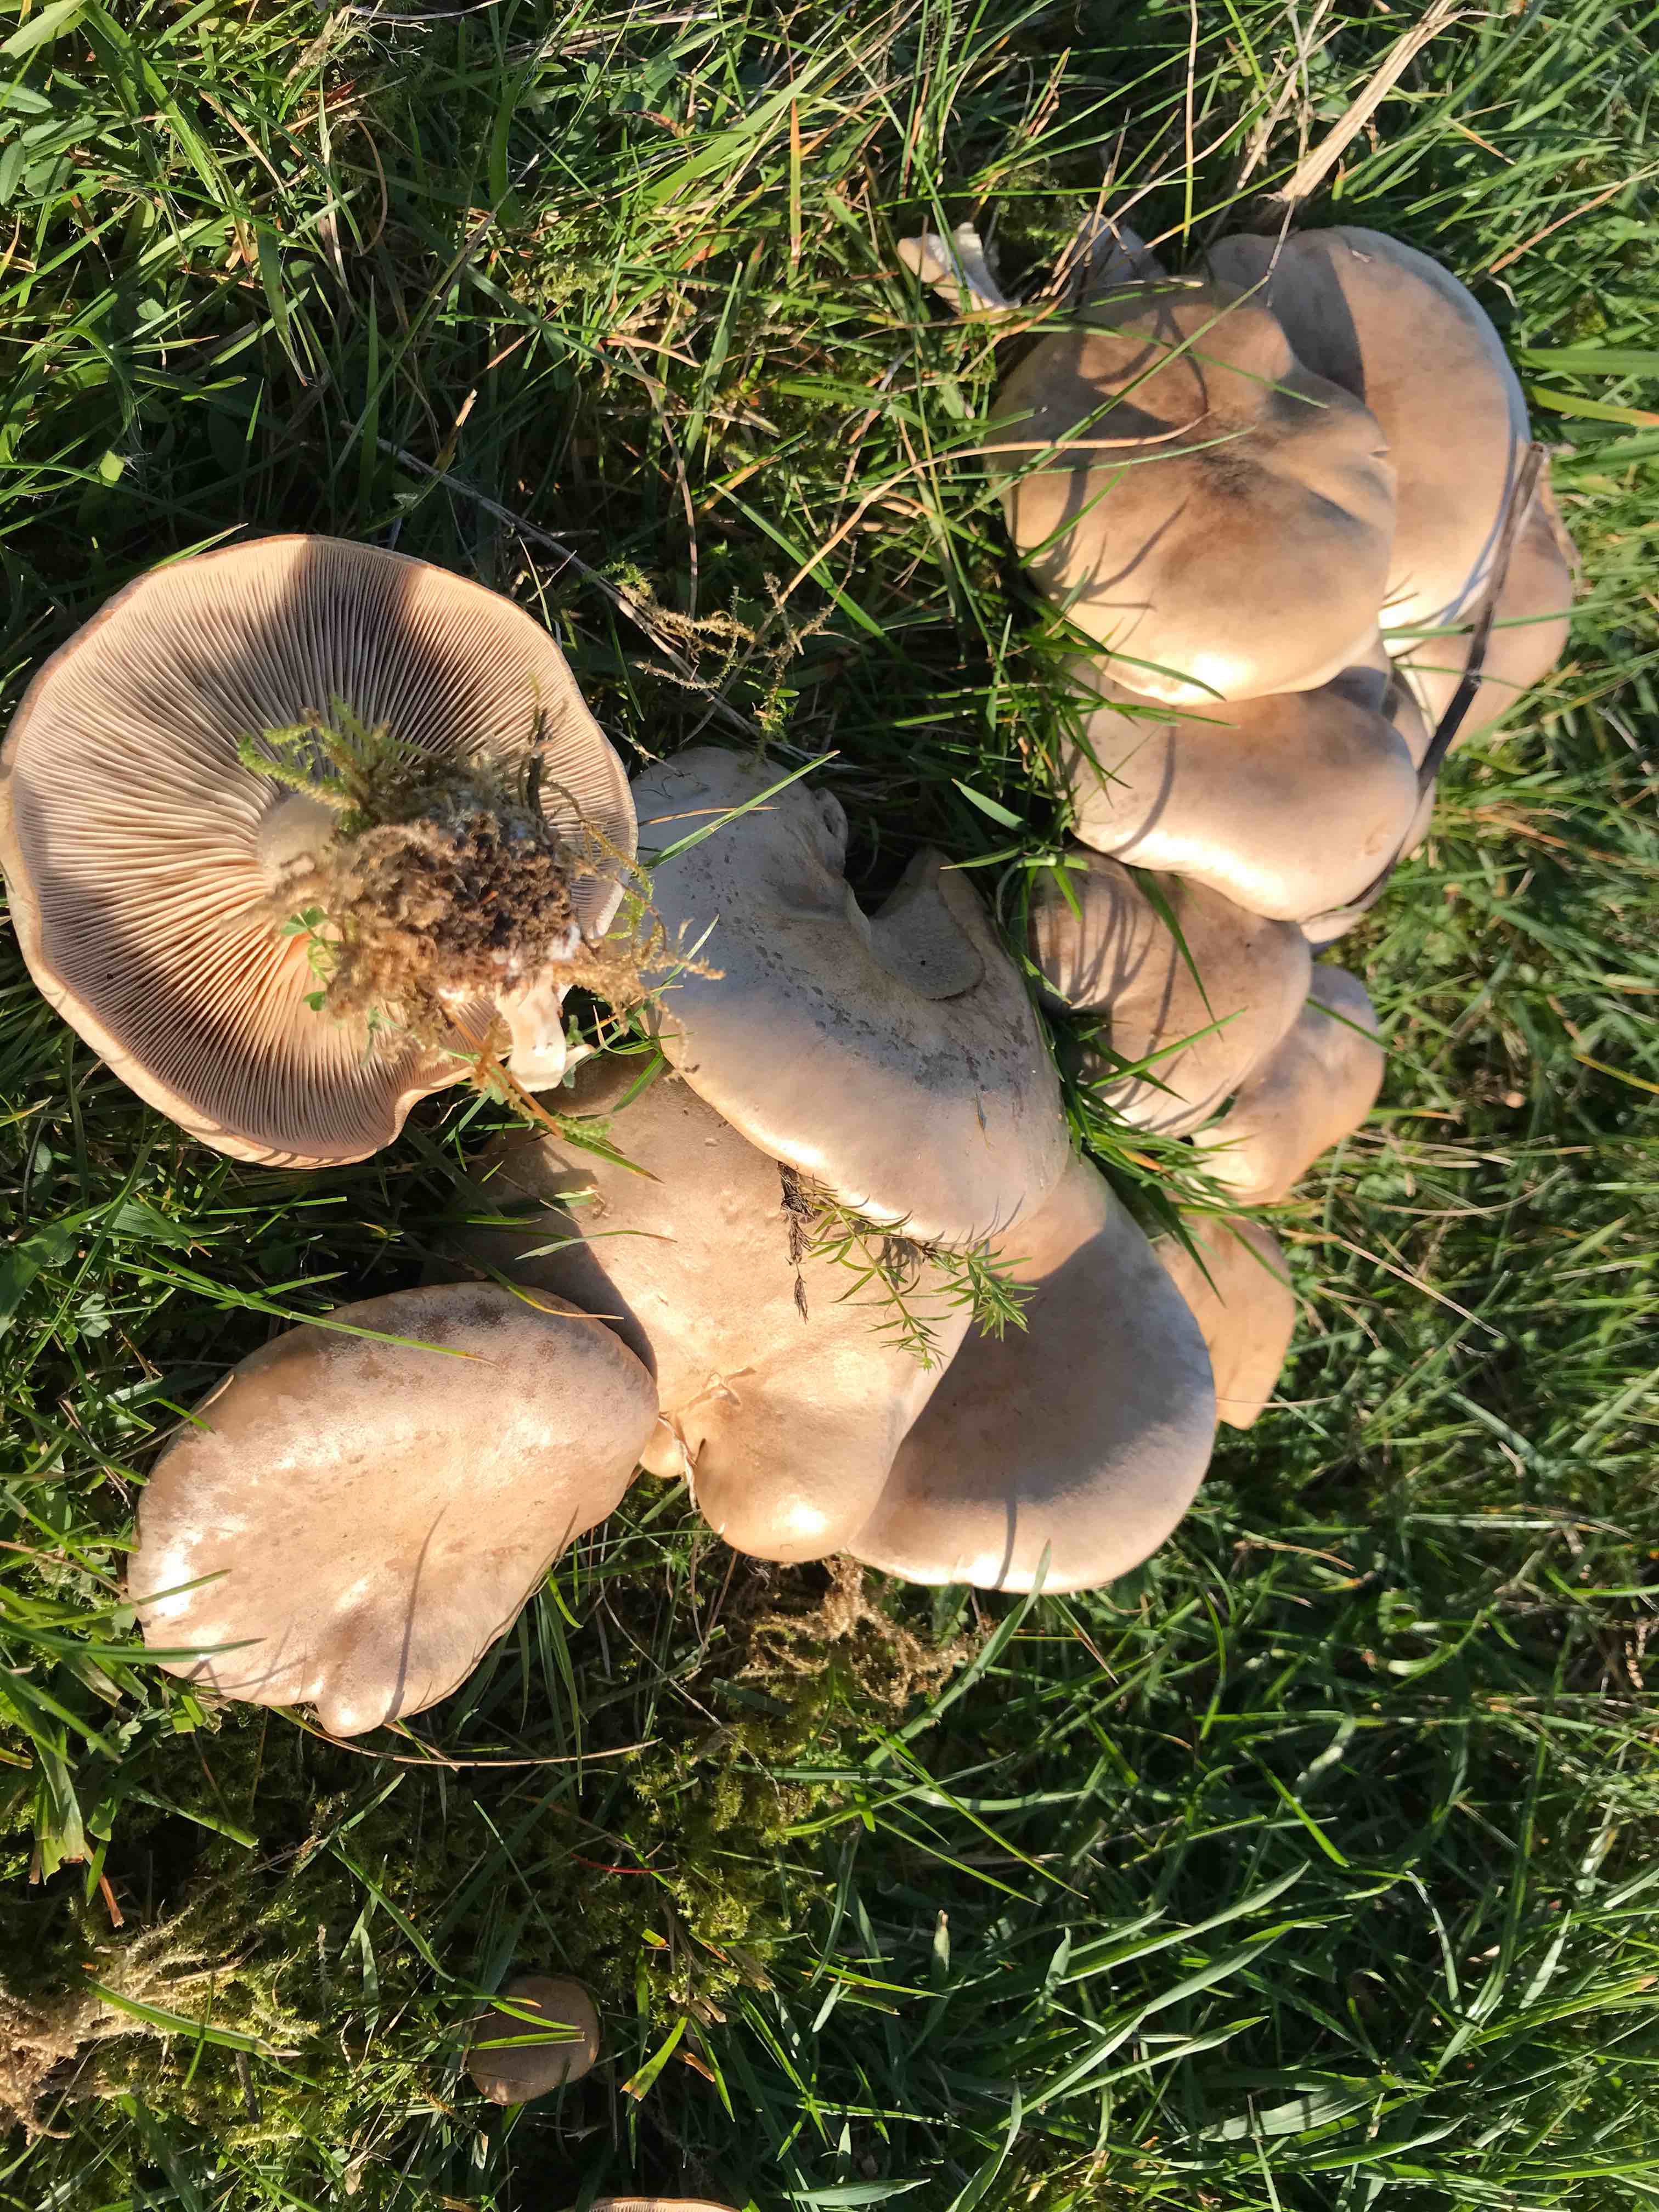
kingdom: Fungi
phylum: Basidiomycota
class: Agaricomycetes
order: Agaricales
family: Tricholomataceae
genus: Lepista
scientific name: Lepista panaeolus
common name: marmoreret hekseringshat
